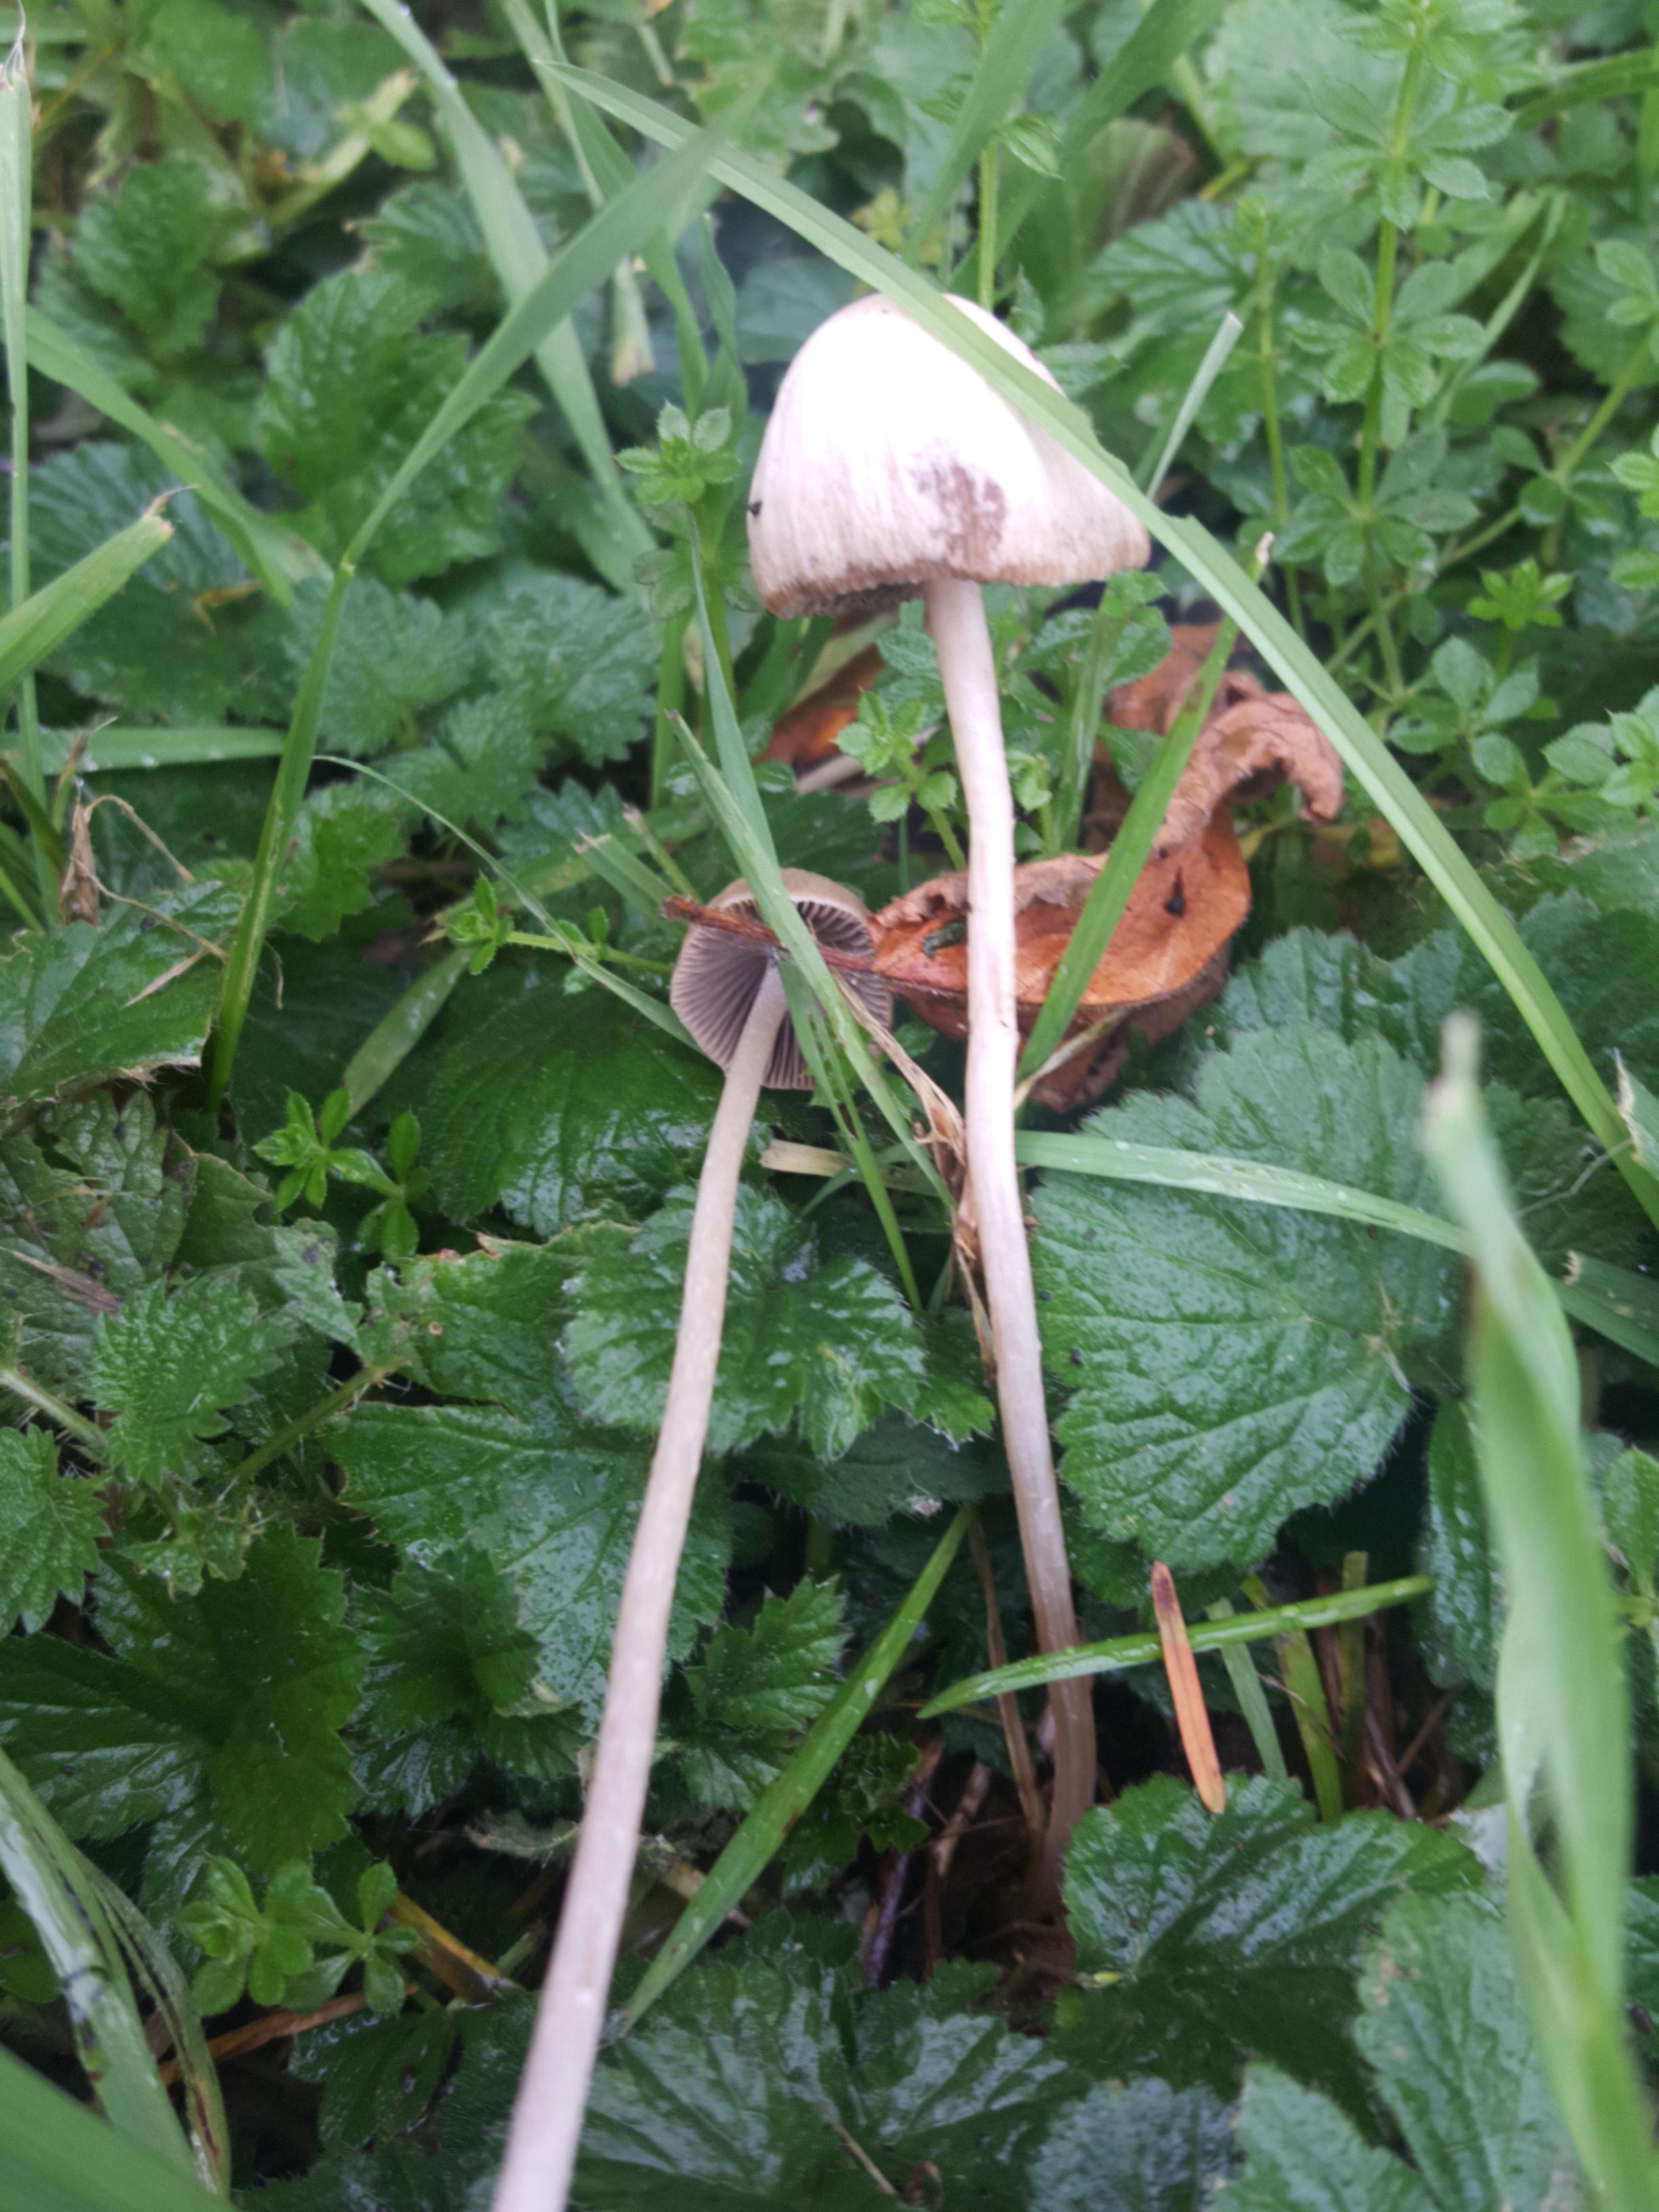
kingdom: Fungi
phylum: Basidiomycota
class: Agaricomycetes
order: Agaricales
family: Psathyrellaceae
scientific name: Psathyrellaceae
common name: mørkhatfamilien
